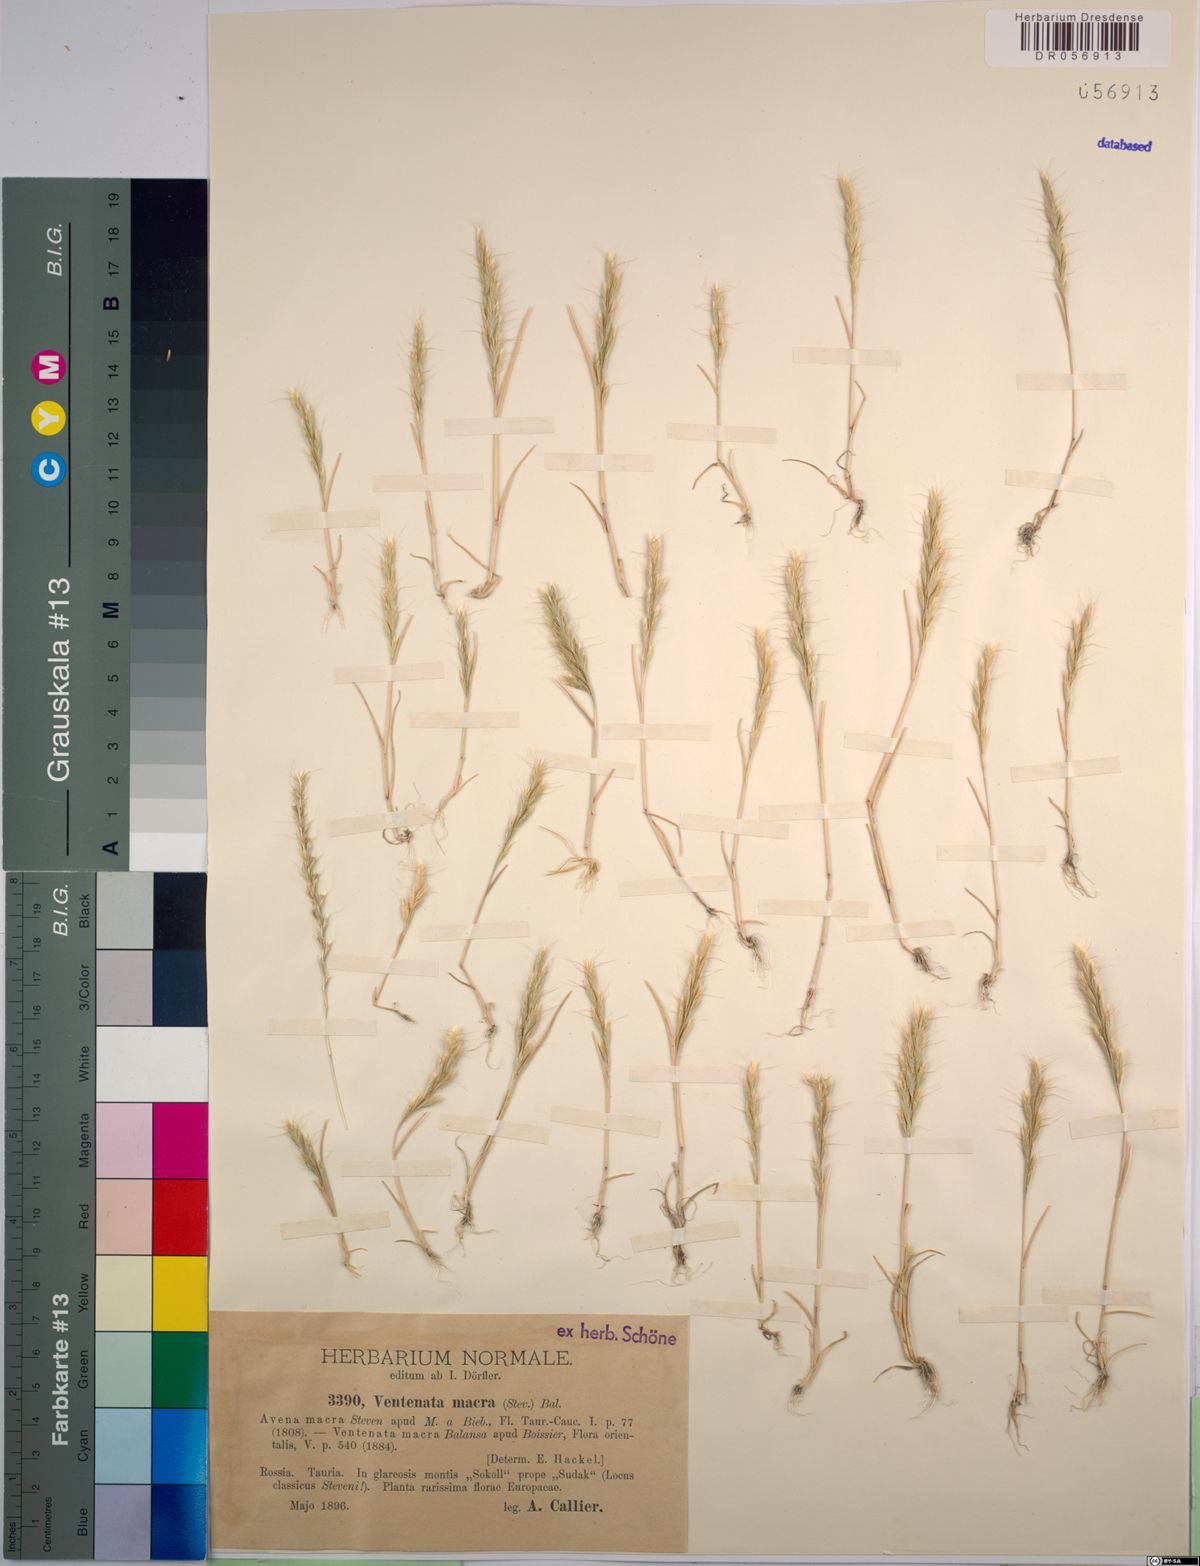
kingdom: Plantae
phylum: Tracheophyta
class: Liliopsida
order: Poales
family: Poaceae
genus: Ventenata
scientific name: Ventenata macra
